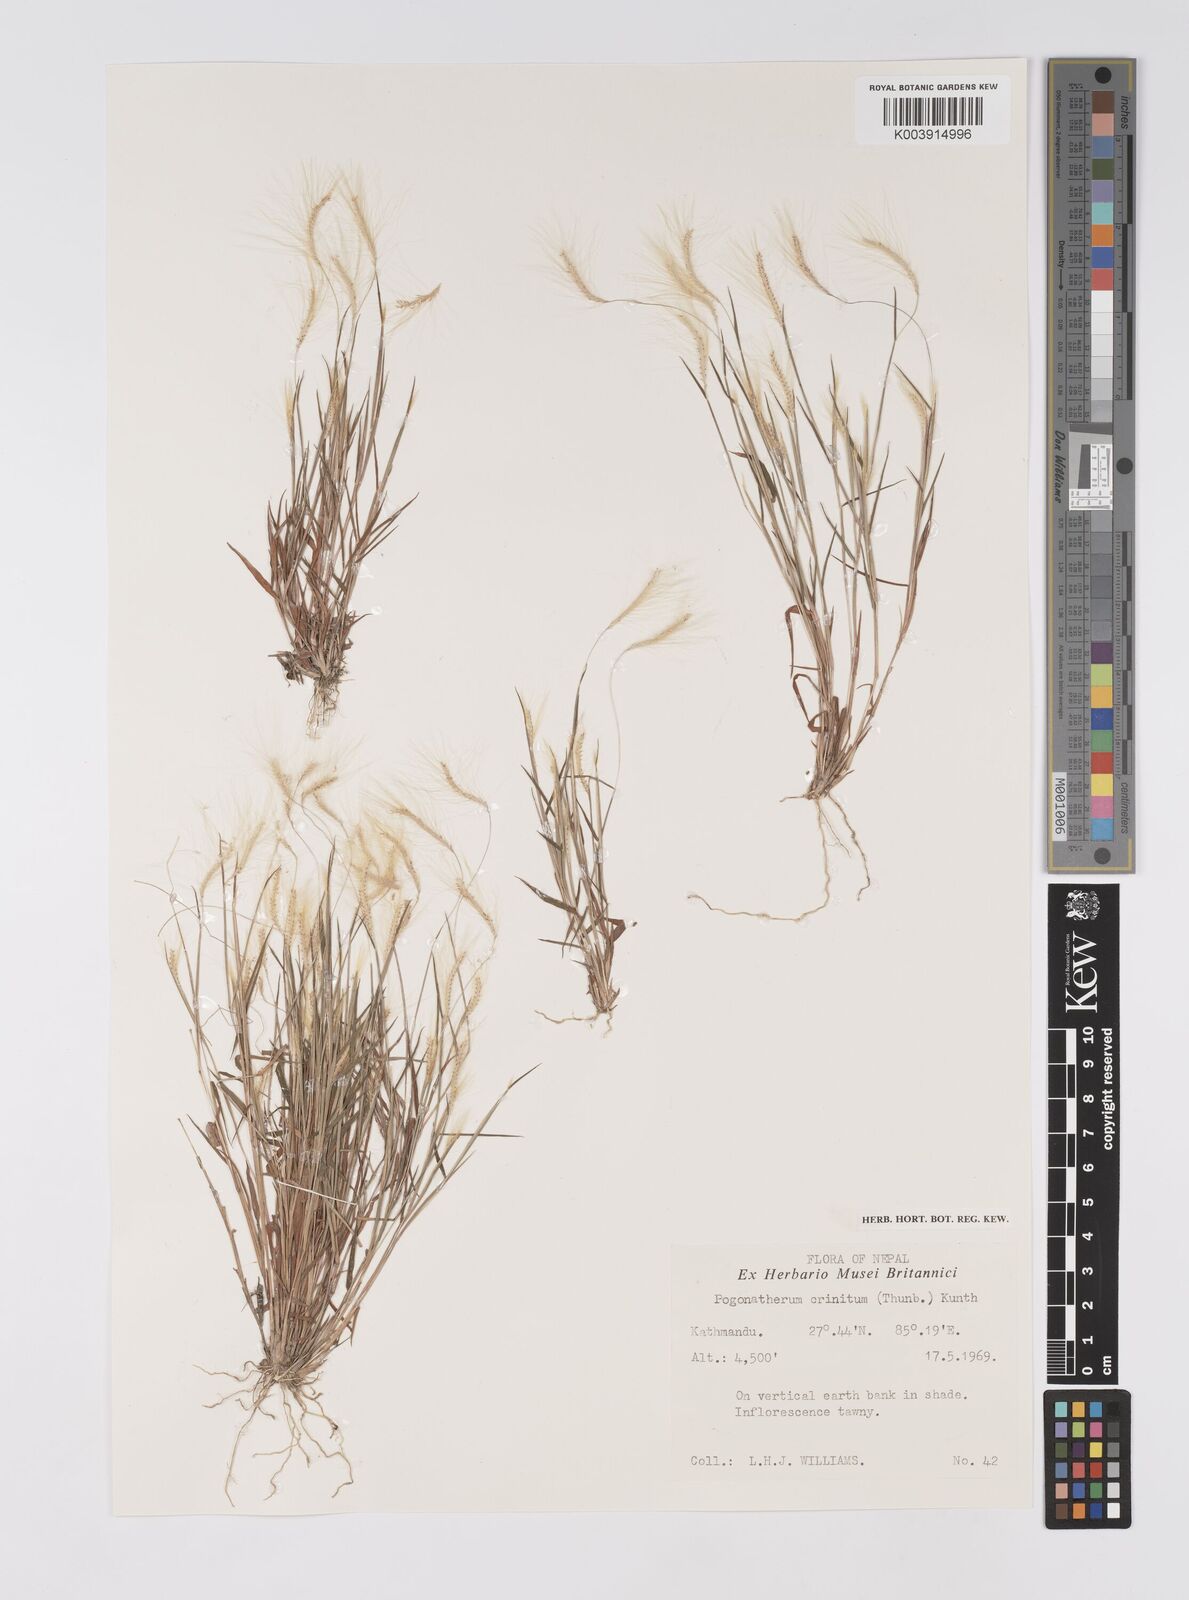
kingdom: Plantae
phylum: Tracheophyta
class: Liliopsida
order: Poales
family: Poaceae
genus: Pogonatherum
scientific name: Pogonatherum crinitum
